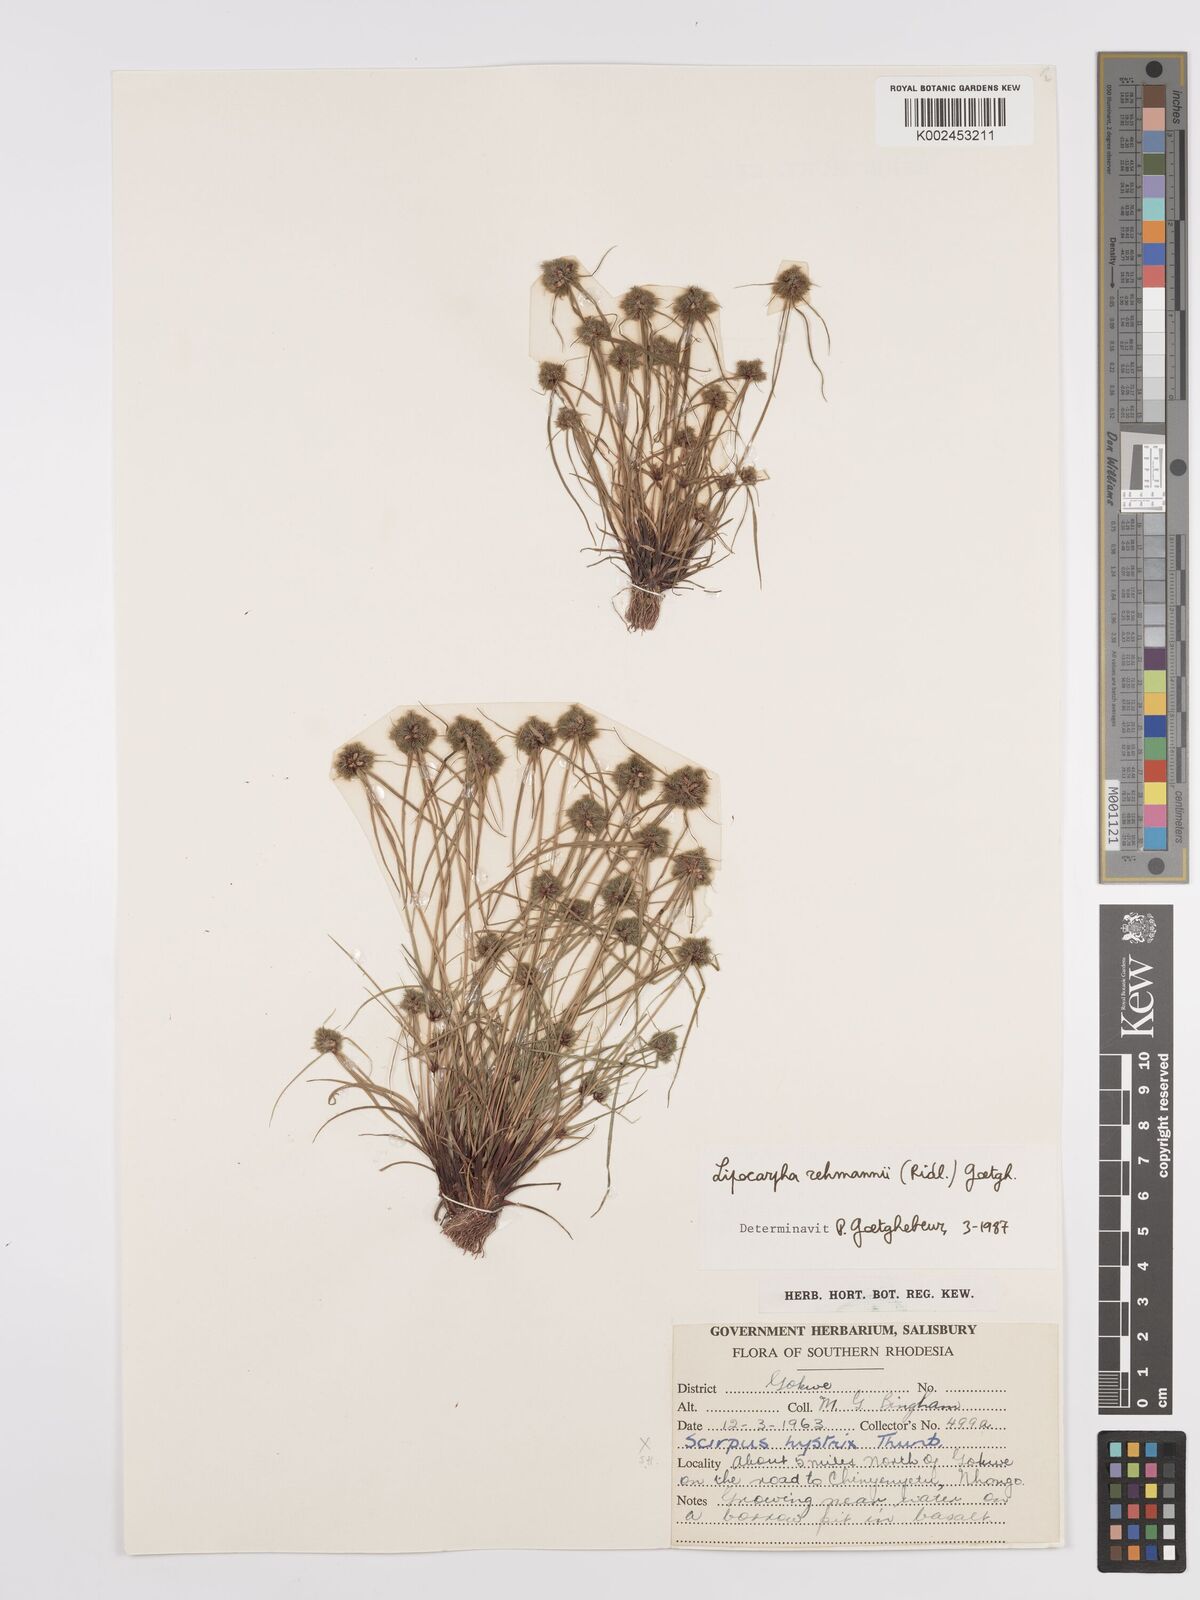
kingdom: Plantae
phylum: Tracheophyta
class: Liliopsida
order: Poales
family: Cyperaceae
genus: Cyperus
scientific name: Cyperus sanguinolentus
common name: Purpleglume flatsedge
